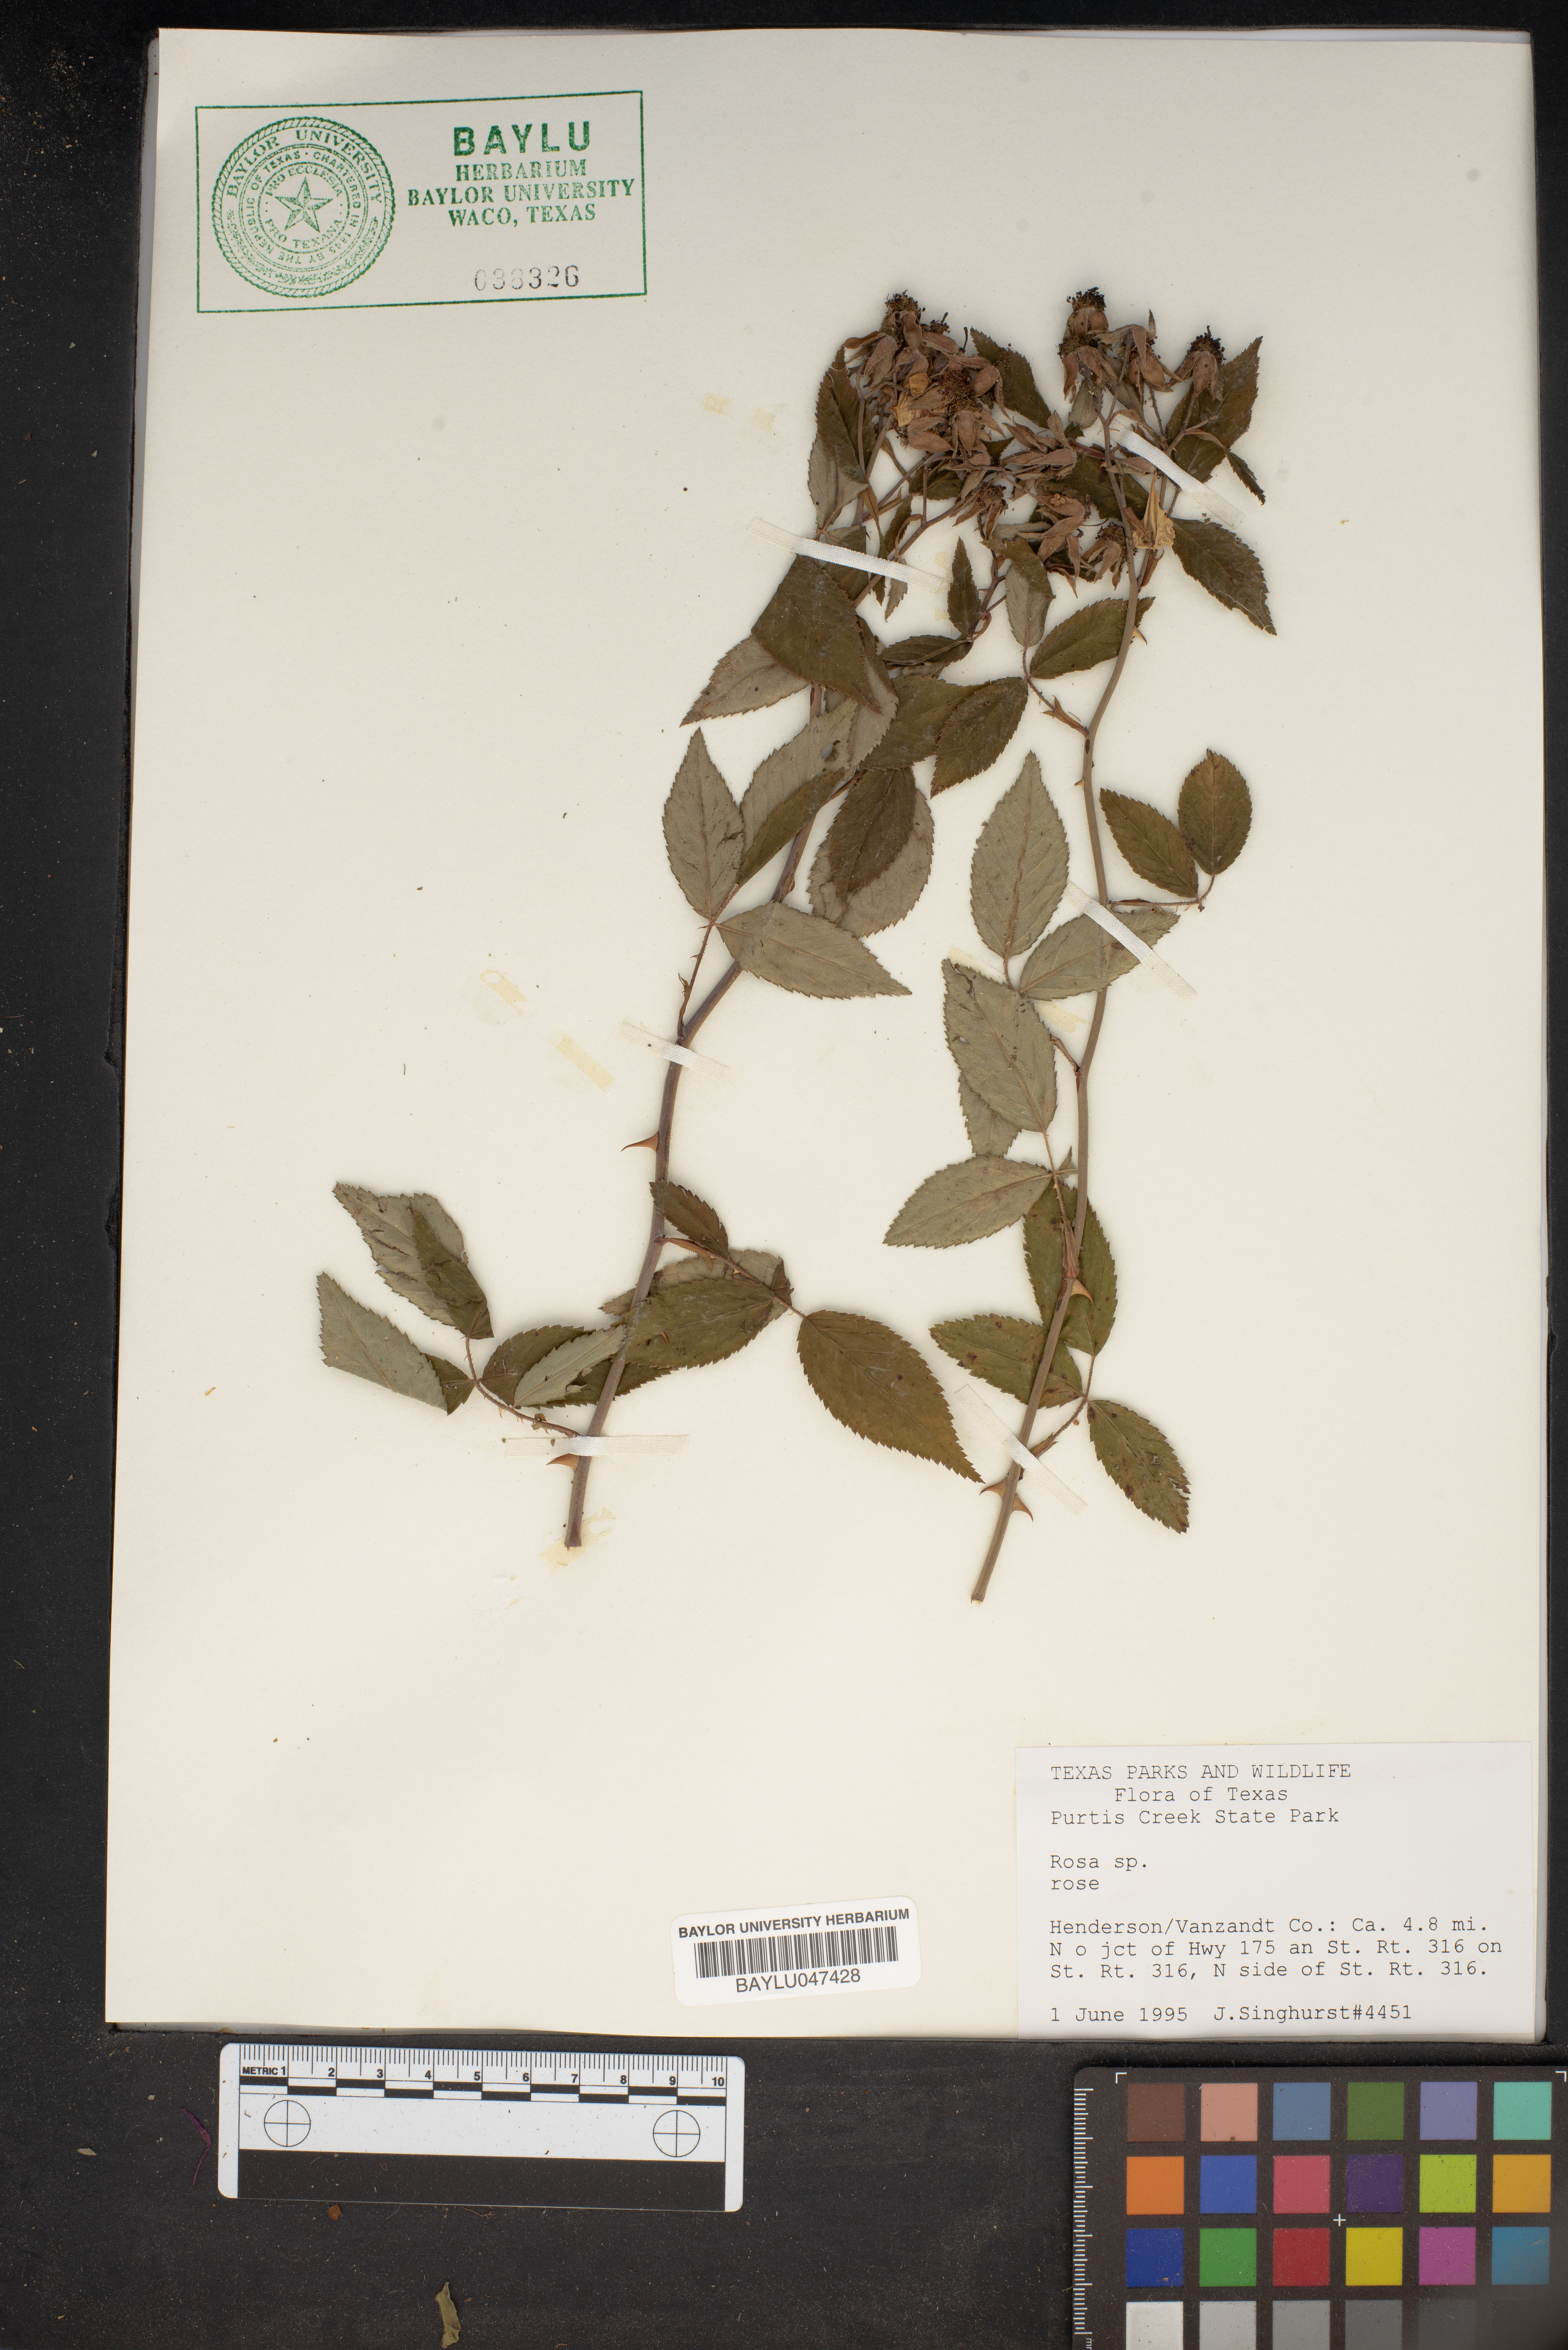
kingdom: Plantae
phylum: Tracheophyta
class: Magnoliopsida
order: Rosales
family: Rosaceae
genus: Rosa
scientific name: Rosa
